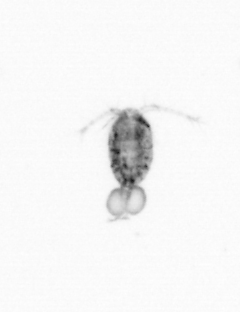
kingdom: Animalia
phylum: Arthropoda
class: Copepoda
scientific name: Copepoda
